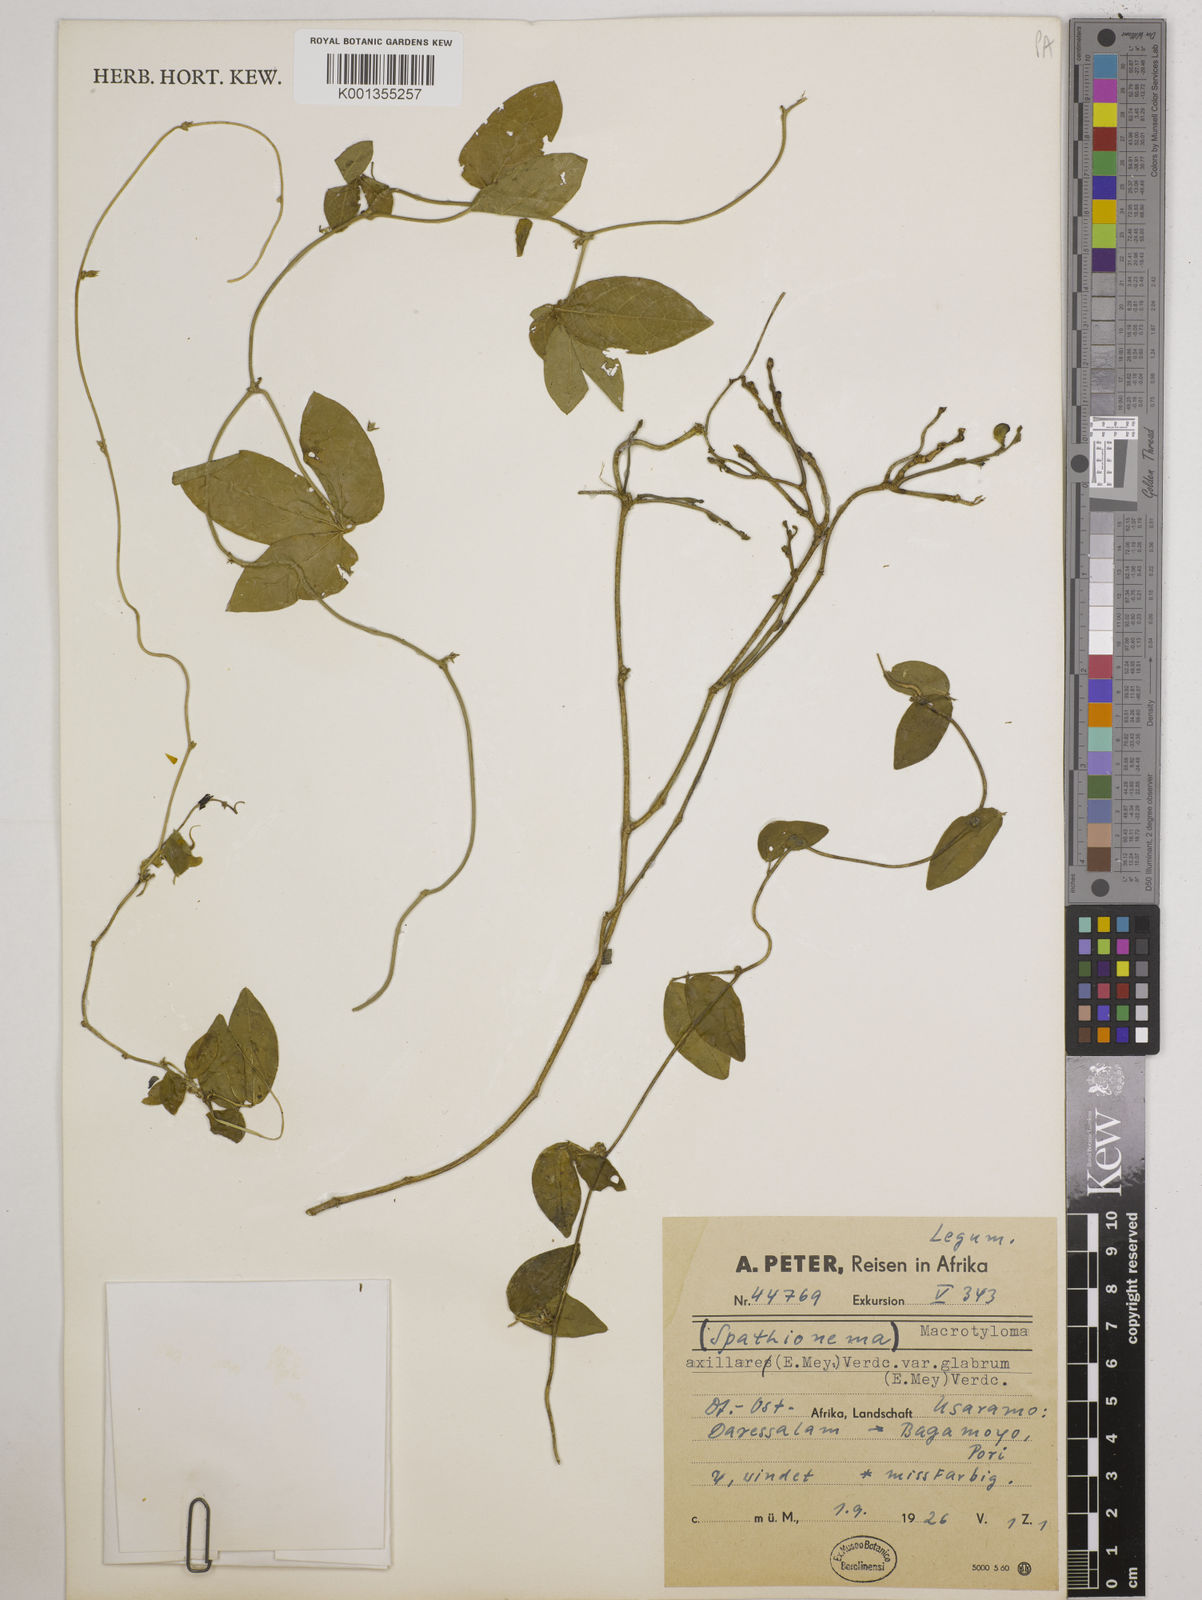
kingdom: Plantae
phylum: Tracheophyta
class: Magnoliopsida
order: Fabales
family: Fabaceae
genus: Spathionema
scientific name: Spathionema kilimandscharicum
